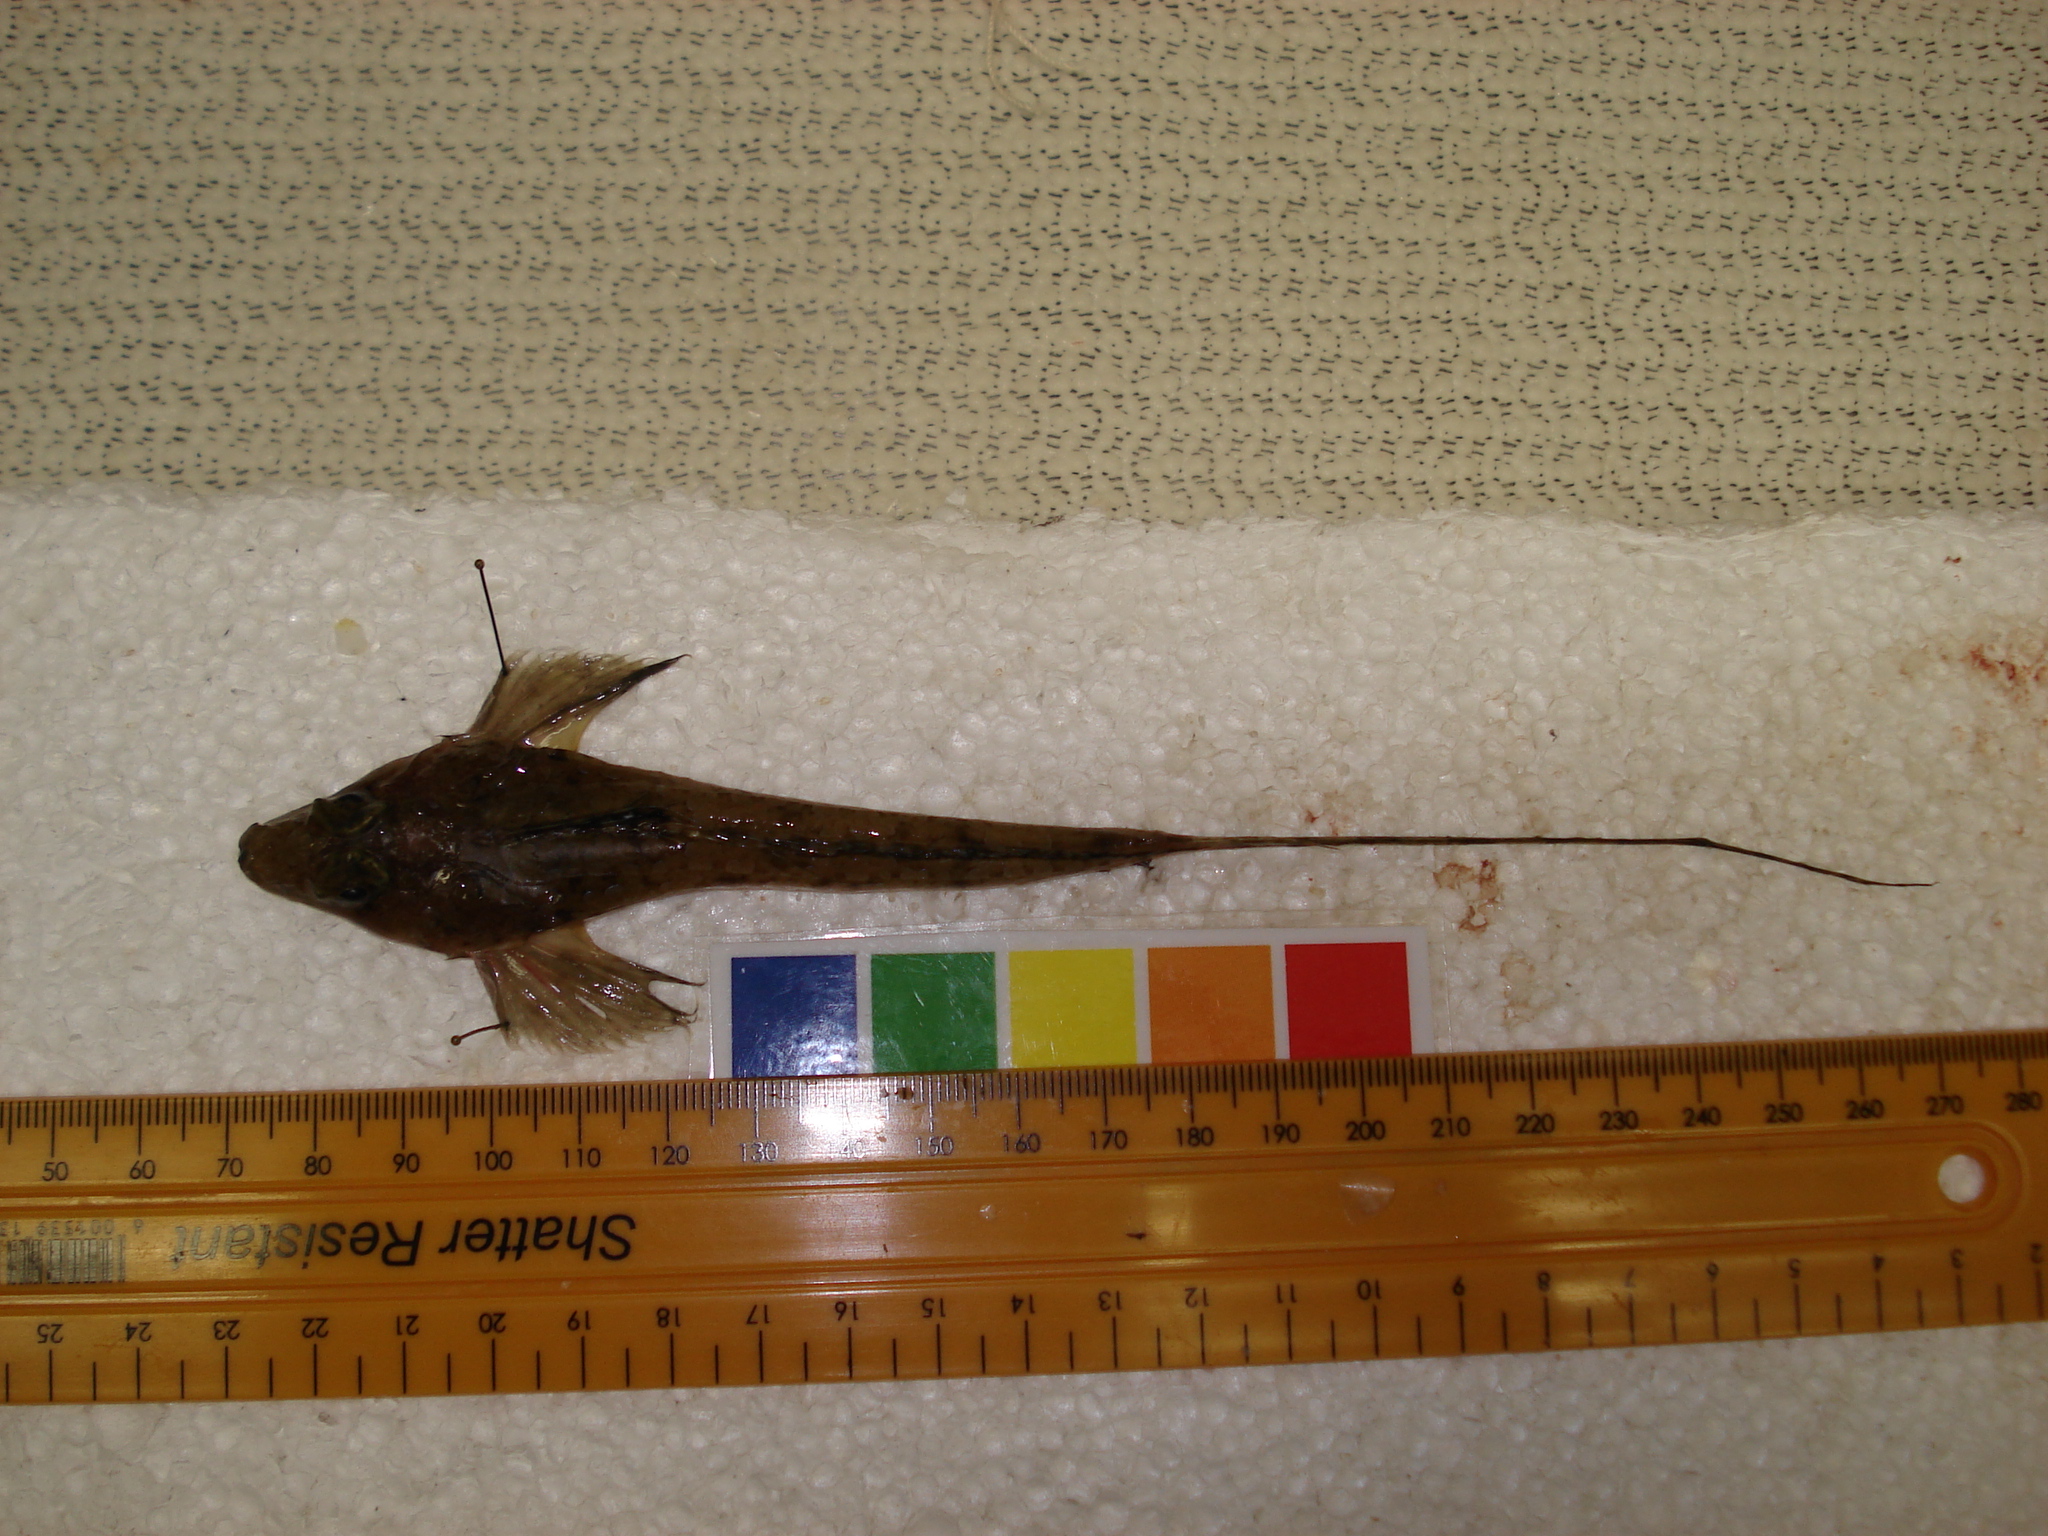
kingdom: Animalia
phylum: Chordata
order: Perciformes
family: Callionymidae
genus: Callionymus
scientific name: Callionymus gardineri
